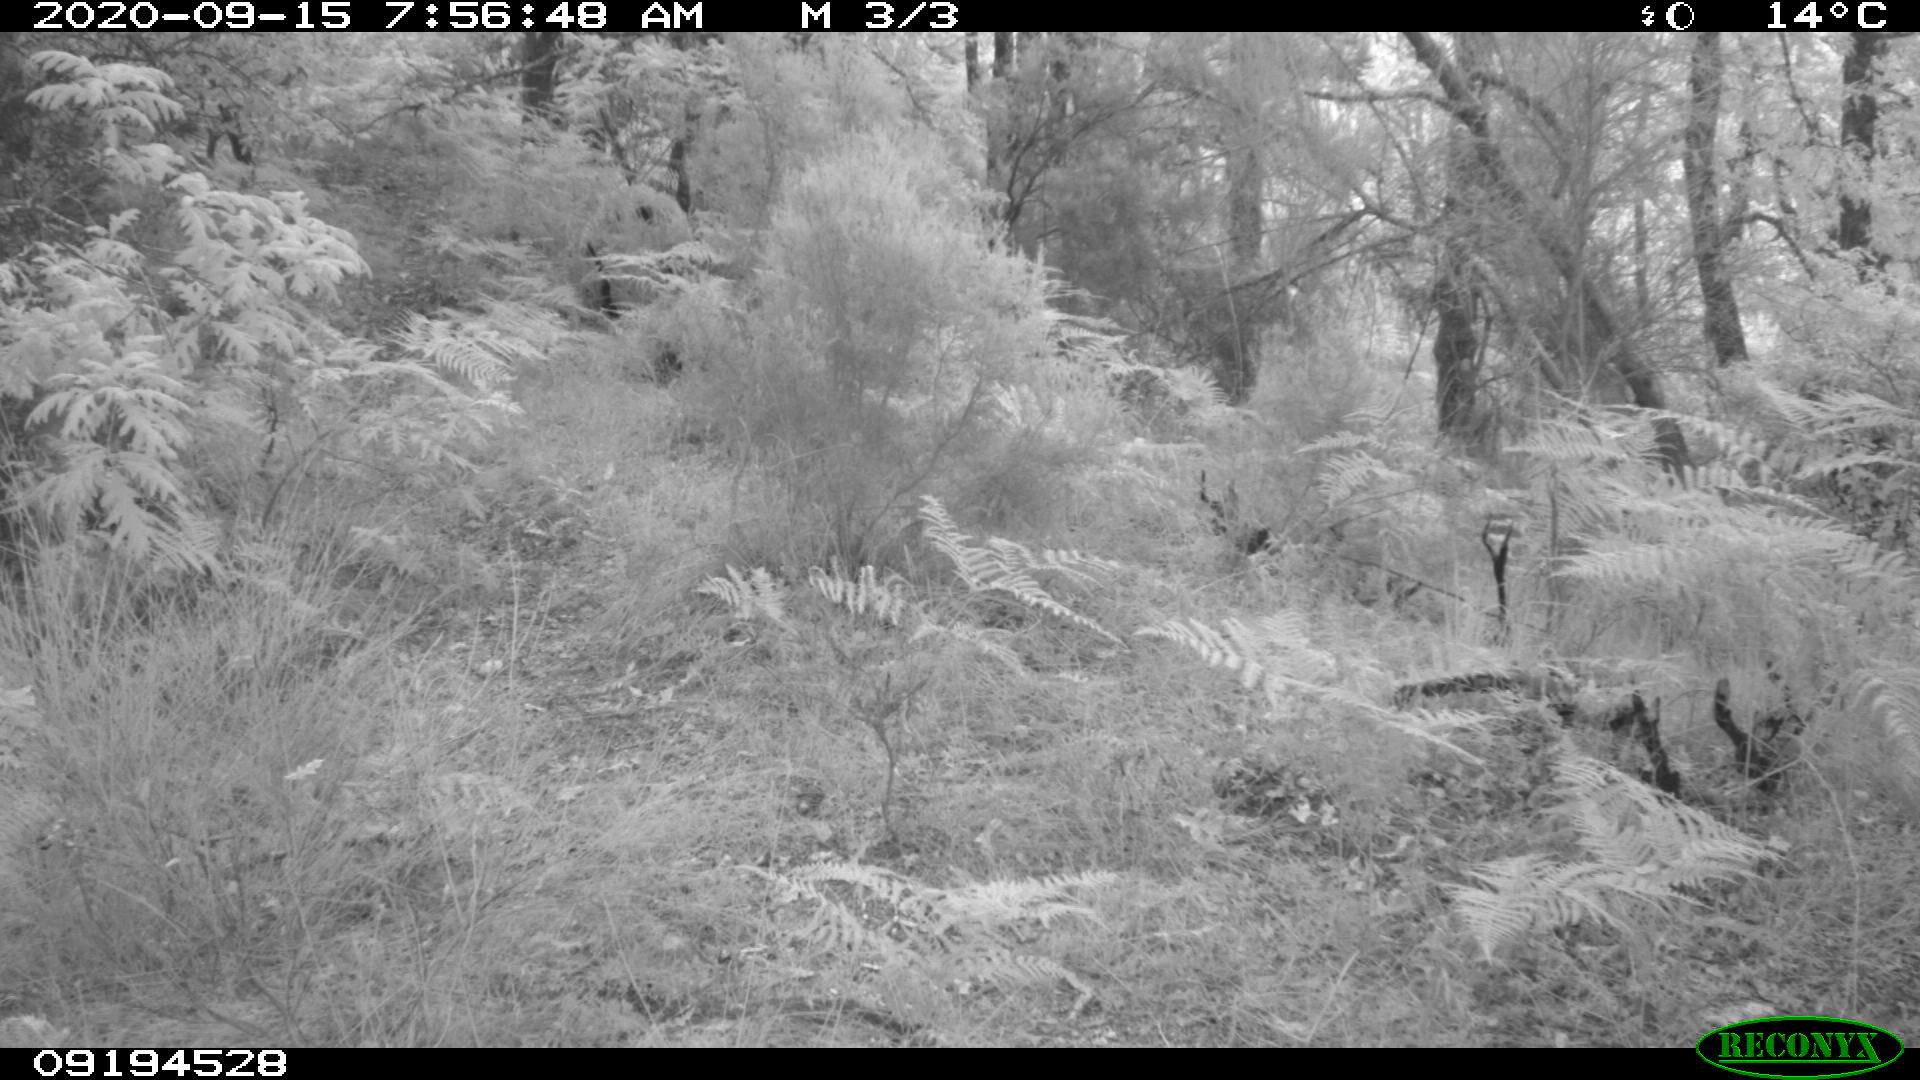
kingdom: Animalia
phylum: Chordata
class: Mammalia
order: Artiodactyla
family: Cervidae
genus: Capreolus
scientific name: Capreolus capreolus
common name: Western roe deer
